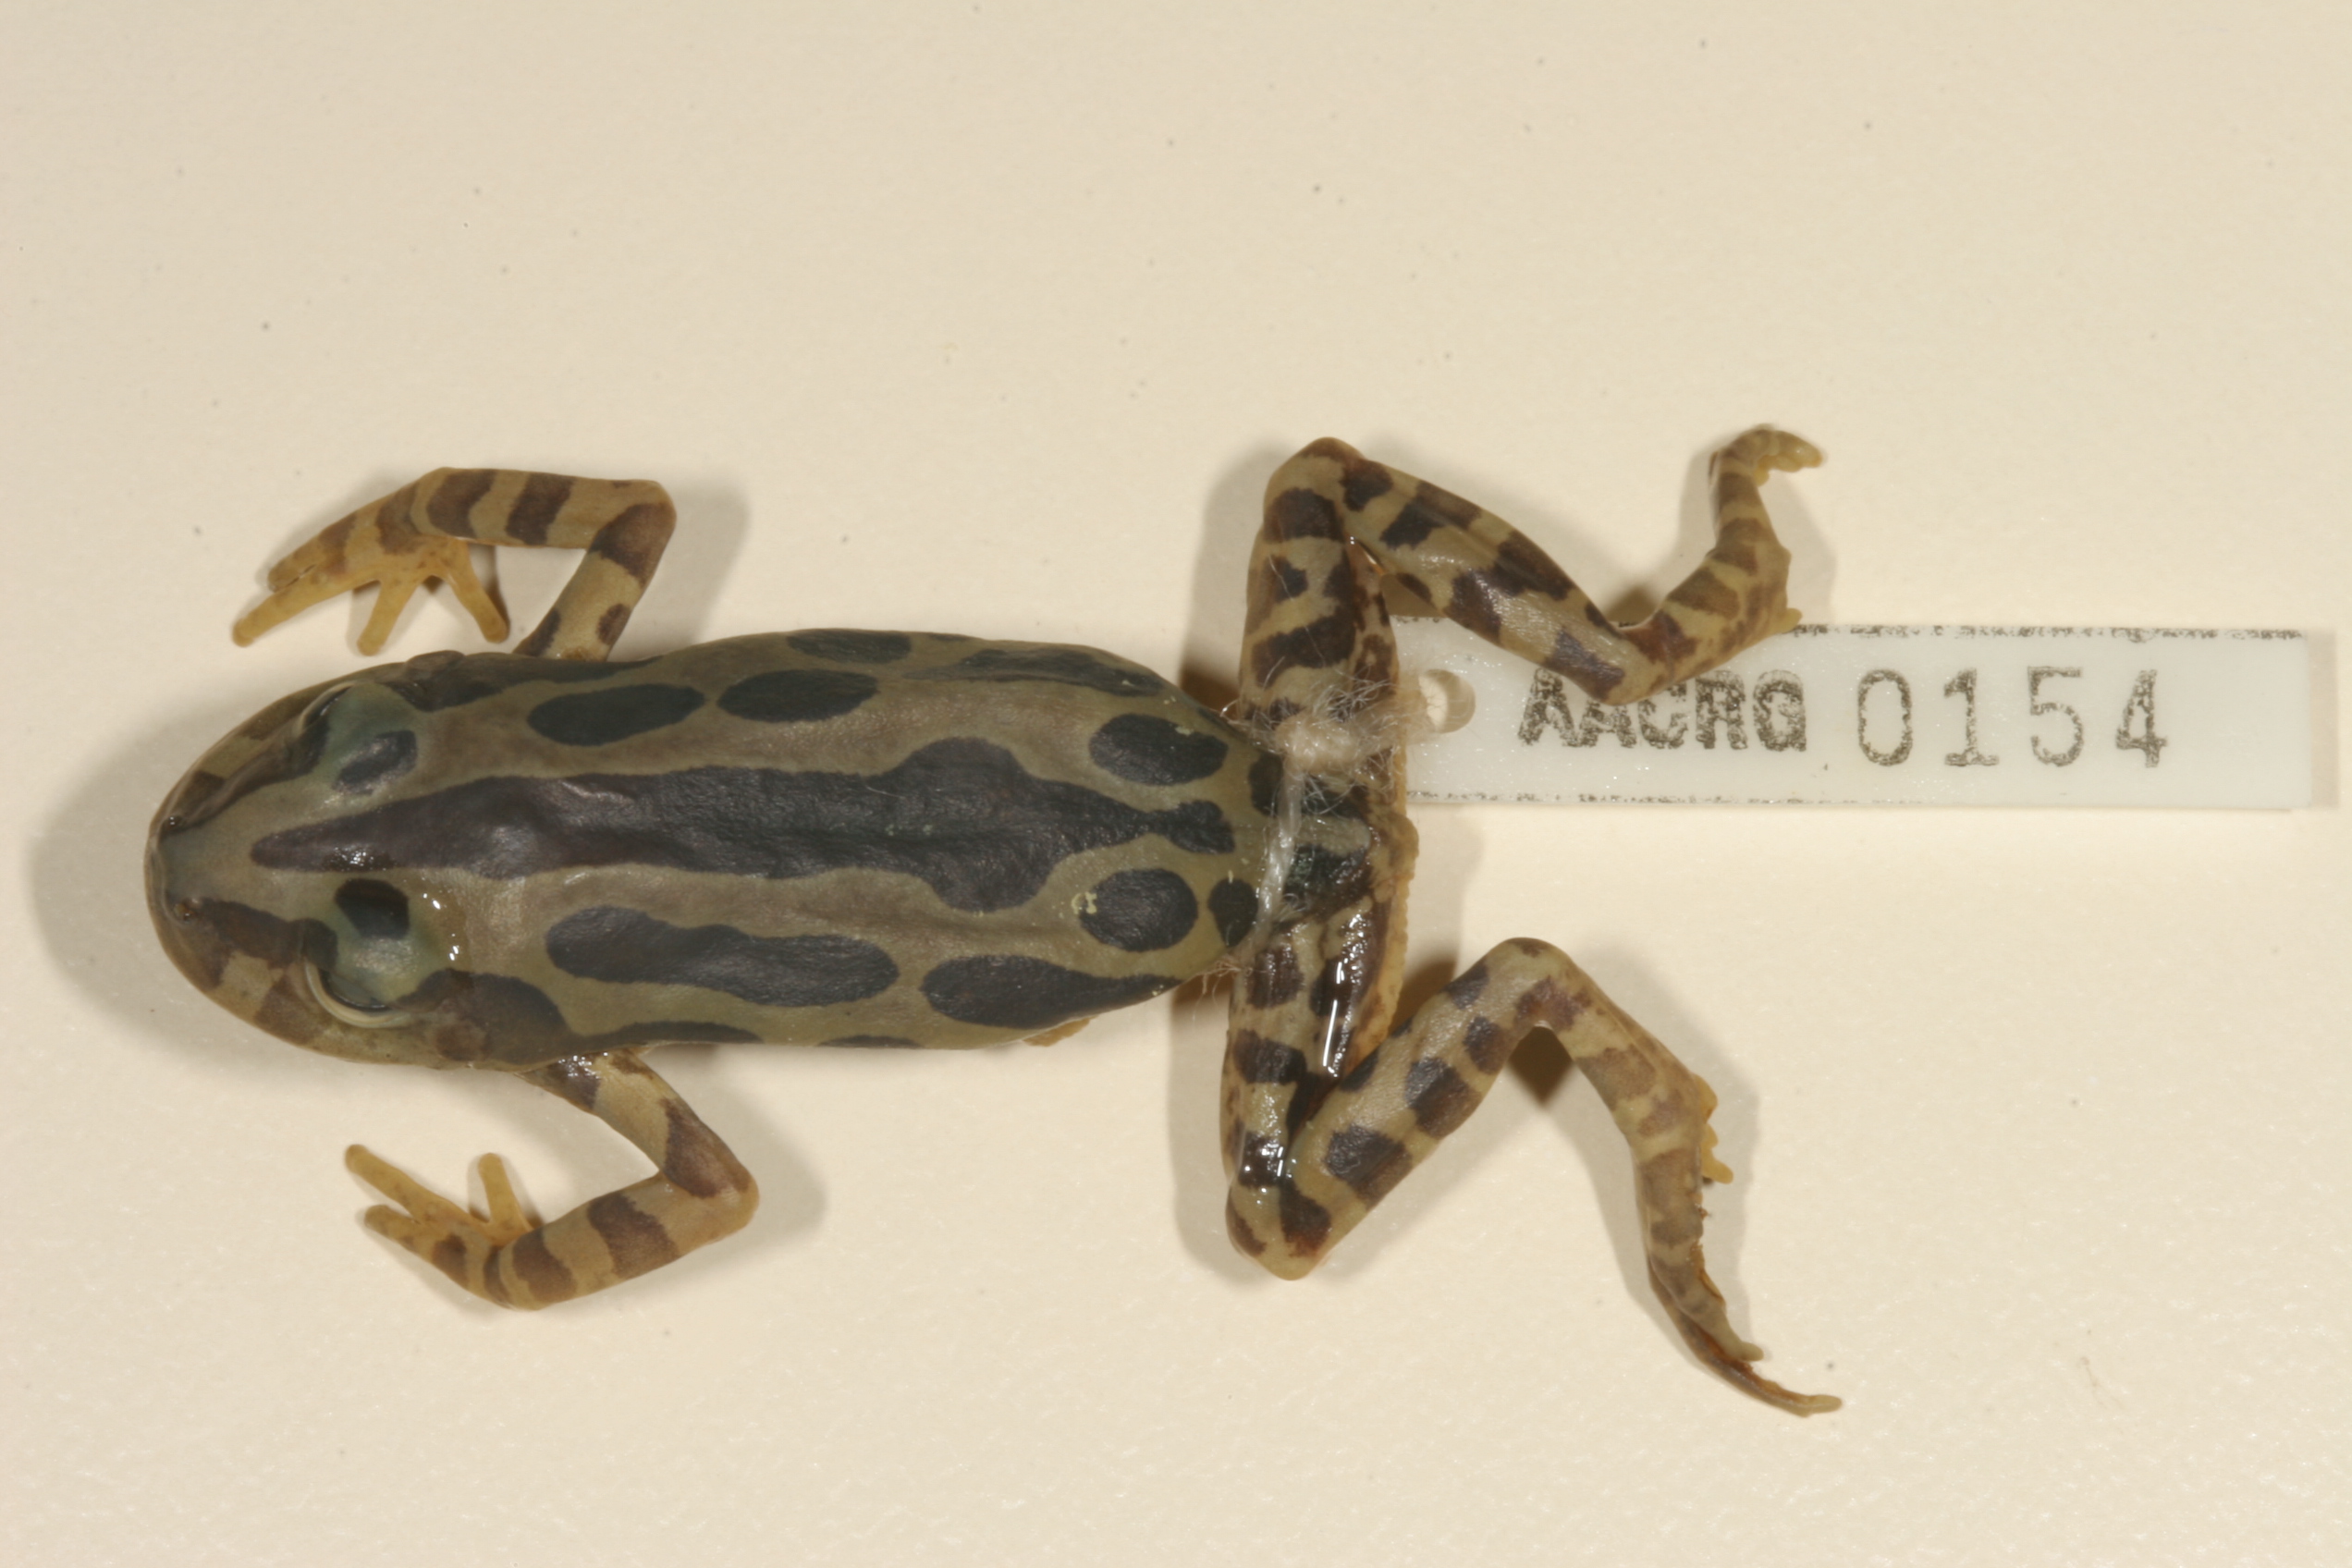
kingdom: Animalia
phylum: Chordata
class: Amphibia
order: Anura
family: Hyperoliidae
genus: Kassina
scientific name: Kassina senegalensis
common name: Senegal land frog
